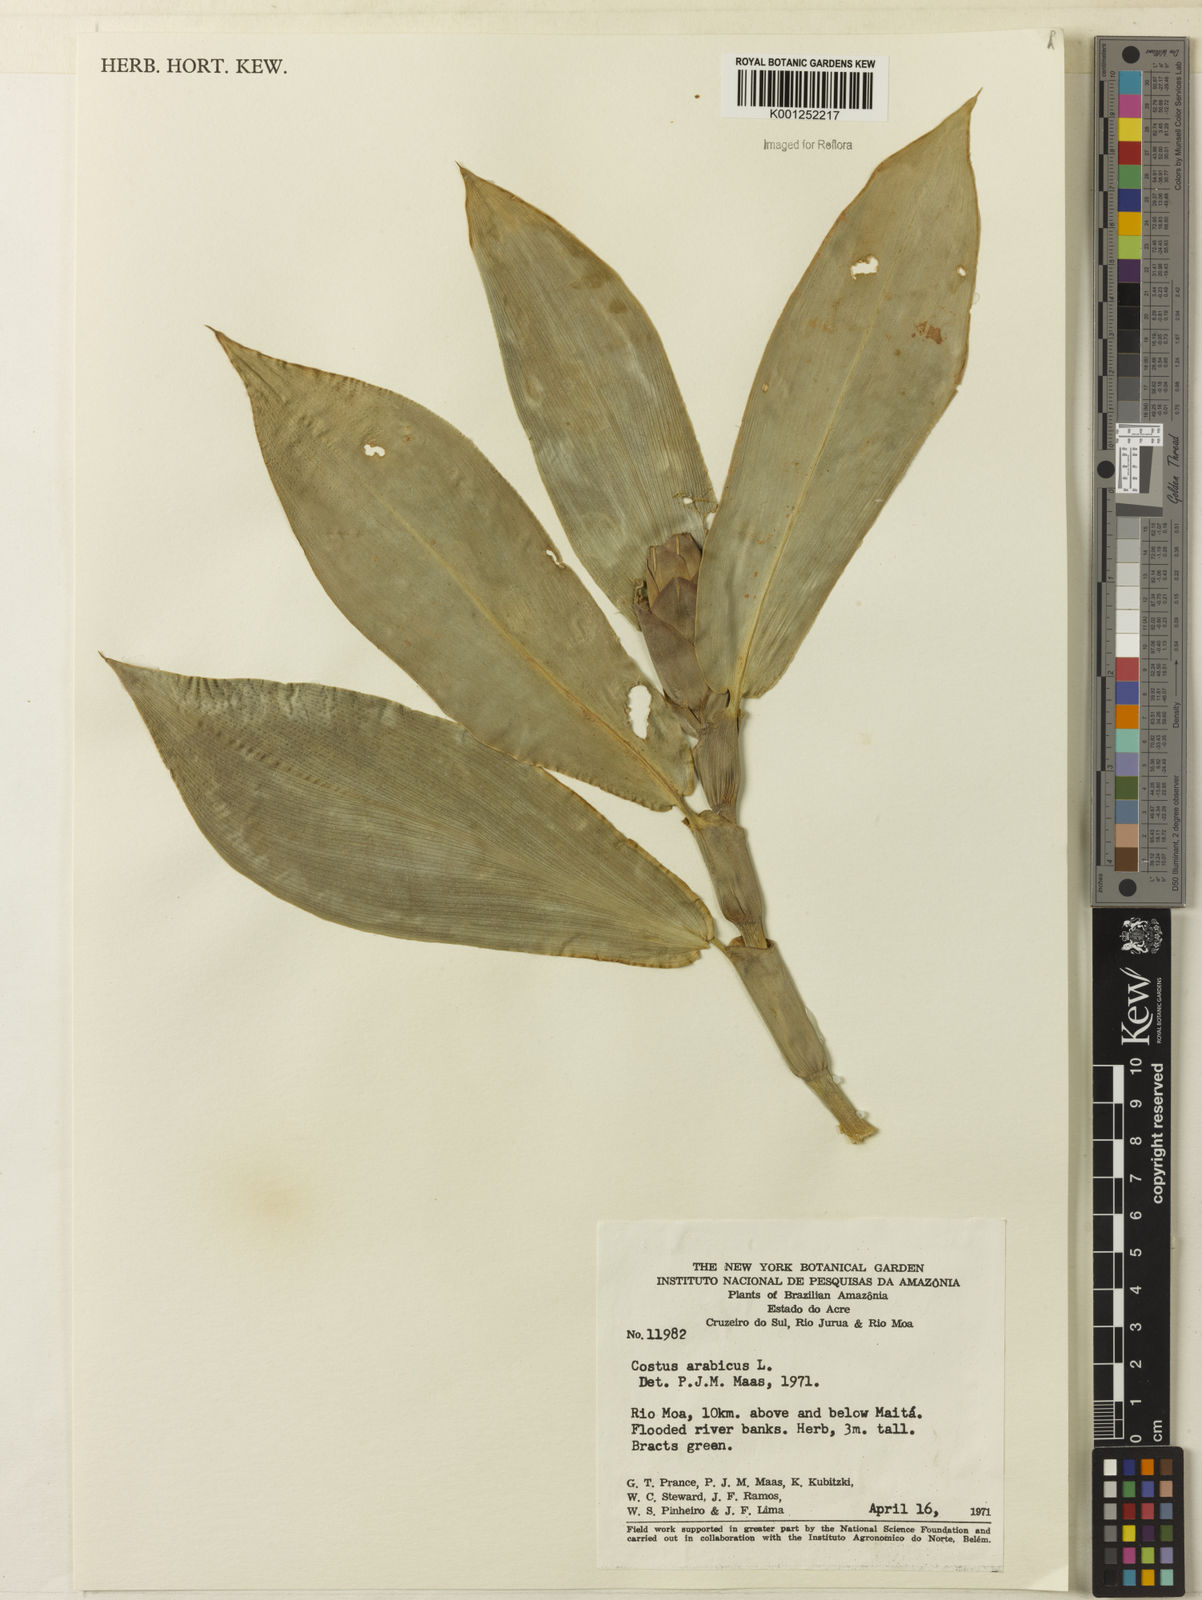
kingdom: Plantae
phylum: Tracheophyta
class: Liliopsida
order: Zingiberales
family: Costaceae
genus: Costus
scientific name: Costus arabicus
